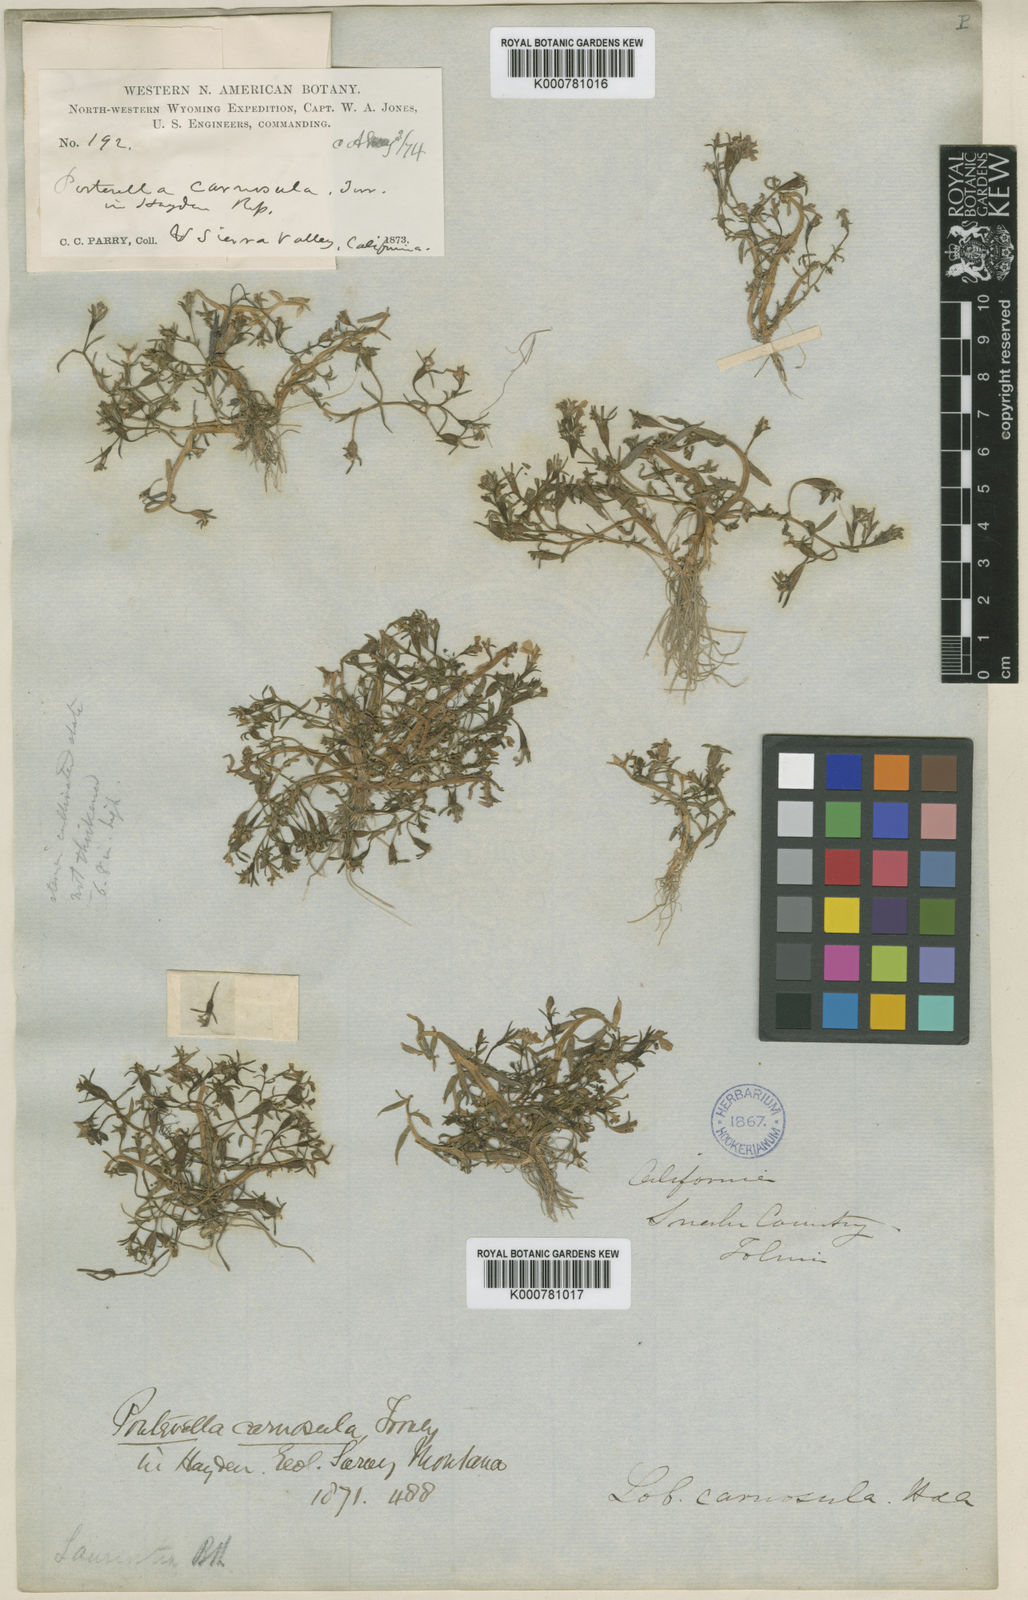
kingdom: Plantae
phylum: Tracheophyta
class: Magnoliopsida
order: Asterales
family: Campanulaceae
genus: Porterella
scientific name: Porterella carnosula
